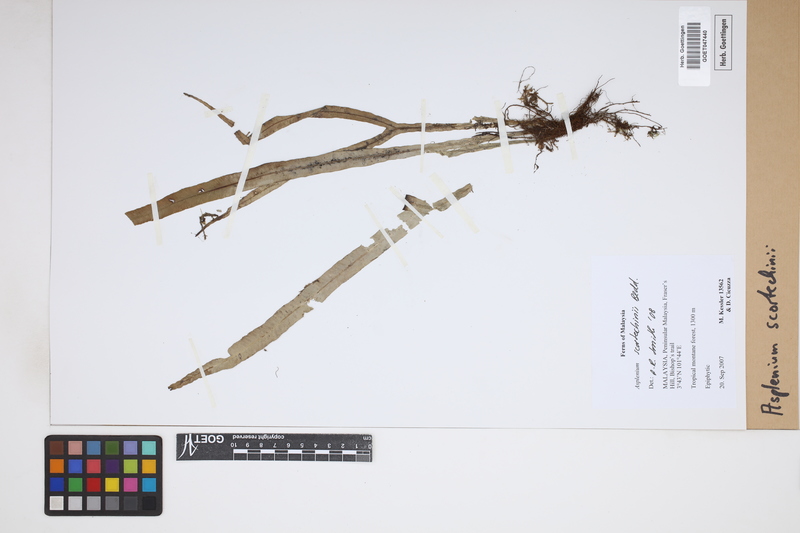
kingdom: Plantae
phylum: Tracheophyta
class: Polypodiopsida
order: Polypodiales
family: Aspleniaceae
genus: Asplenium
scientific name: Asplenium scortechinii
